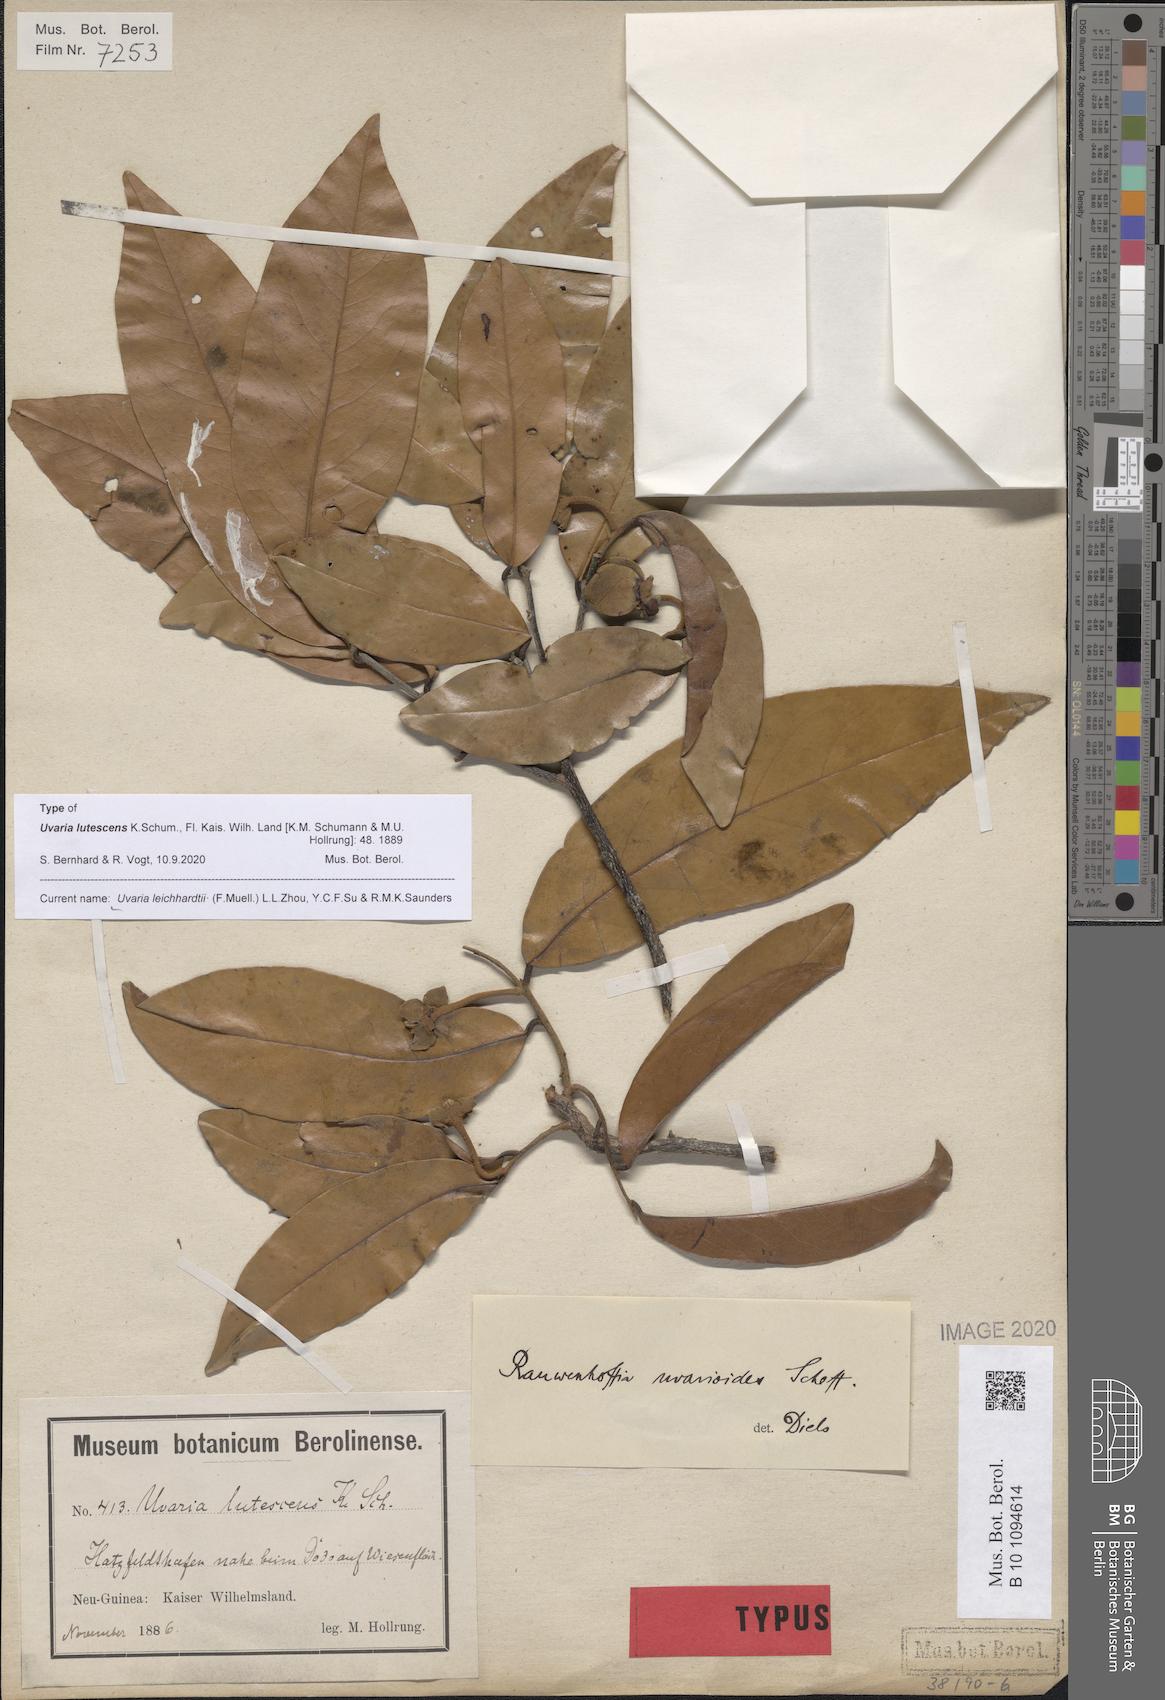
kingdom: Plantae
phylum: Tracheophyta
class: Magnoliopsida
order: Magnoliales
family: Annonaceae
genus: Uvaria
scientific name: Uvaria leichhardtii
